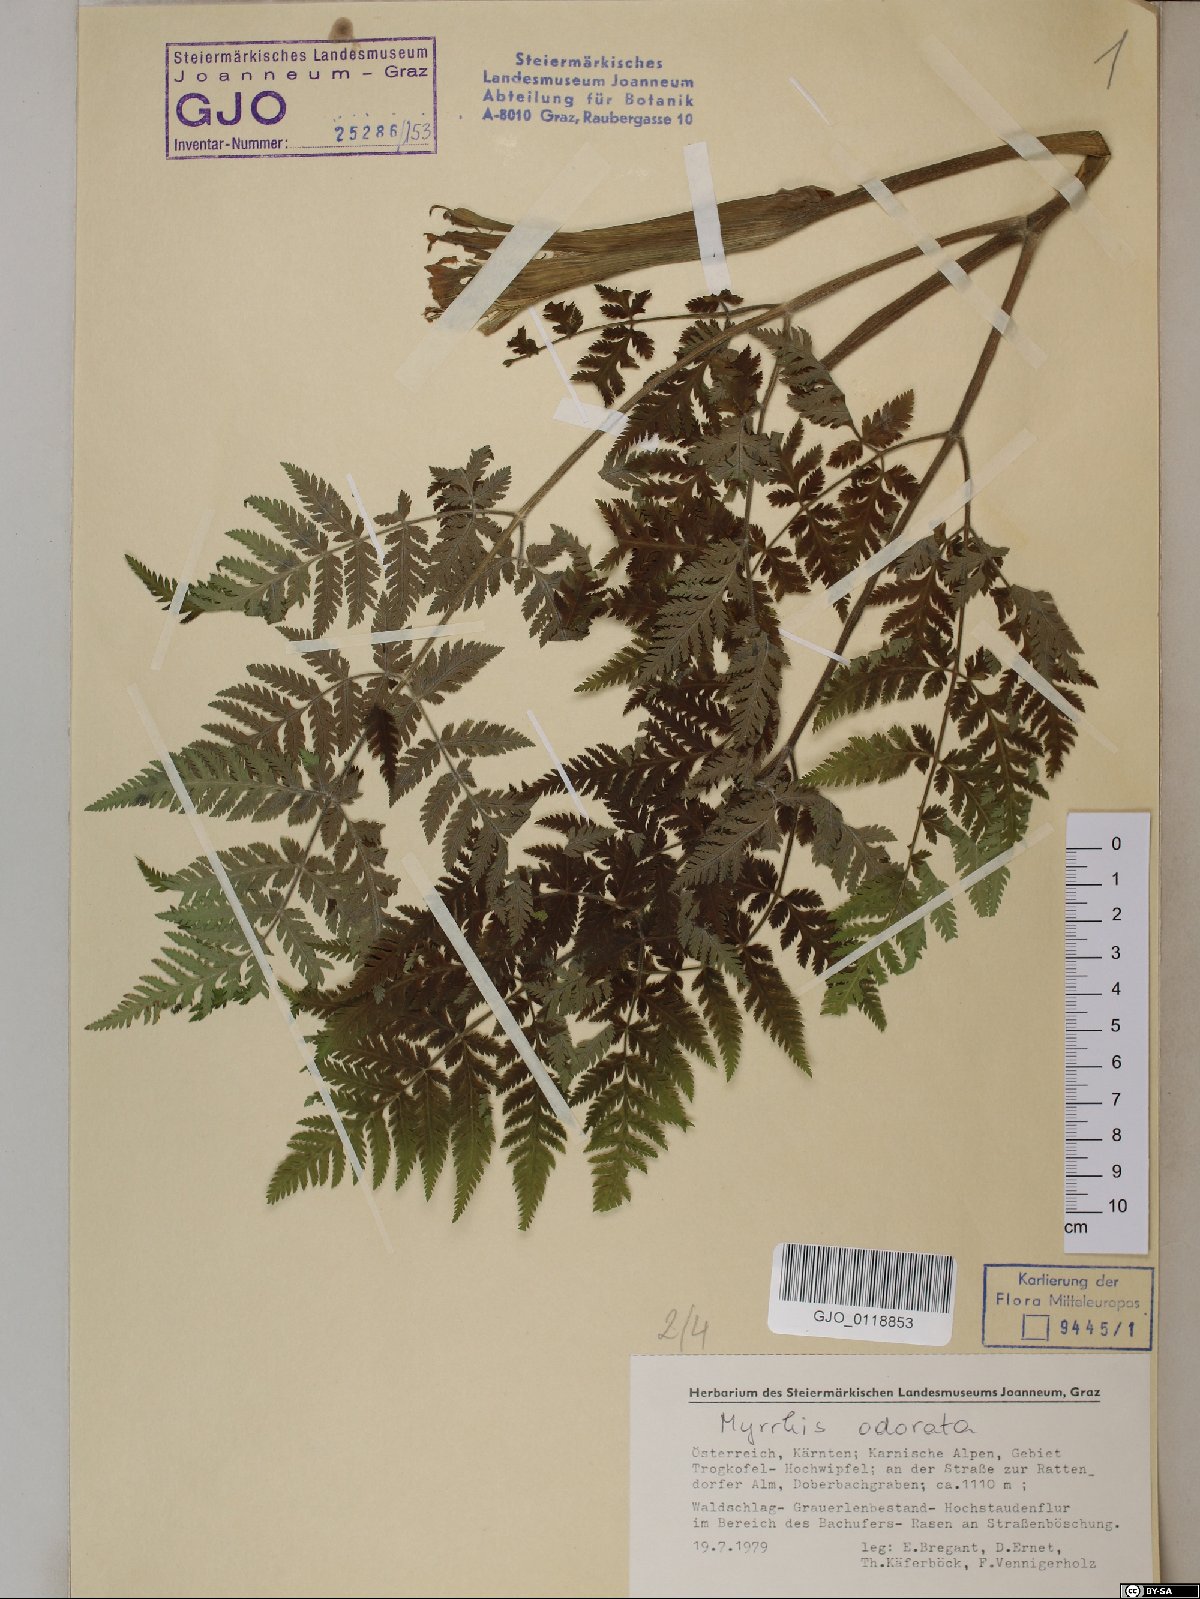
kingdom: Plantae
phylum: Tracheophyta
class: Magnoliopsida
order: Apiales
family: Apiaceae
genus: Myrrhis
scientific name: Myrrhis odorata
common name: Sweet cicely
